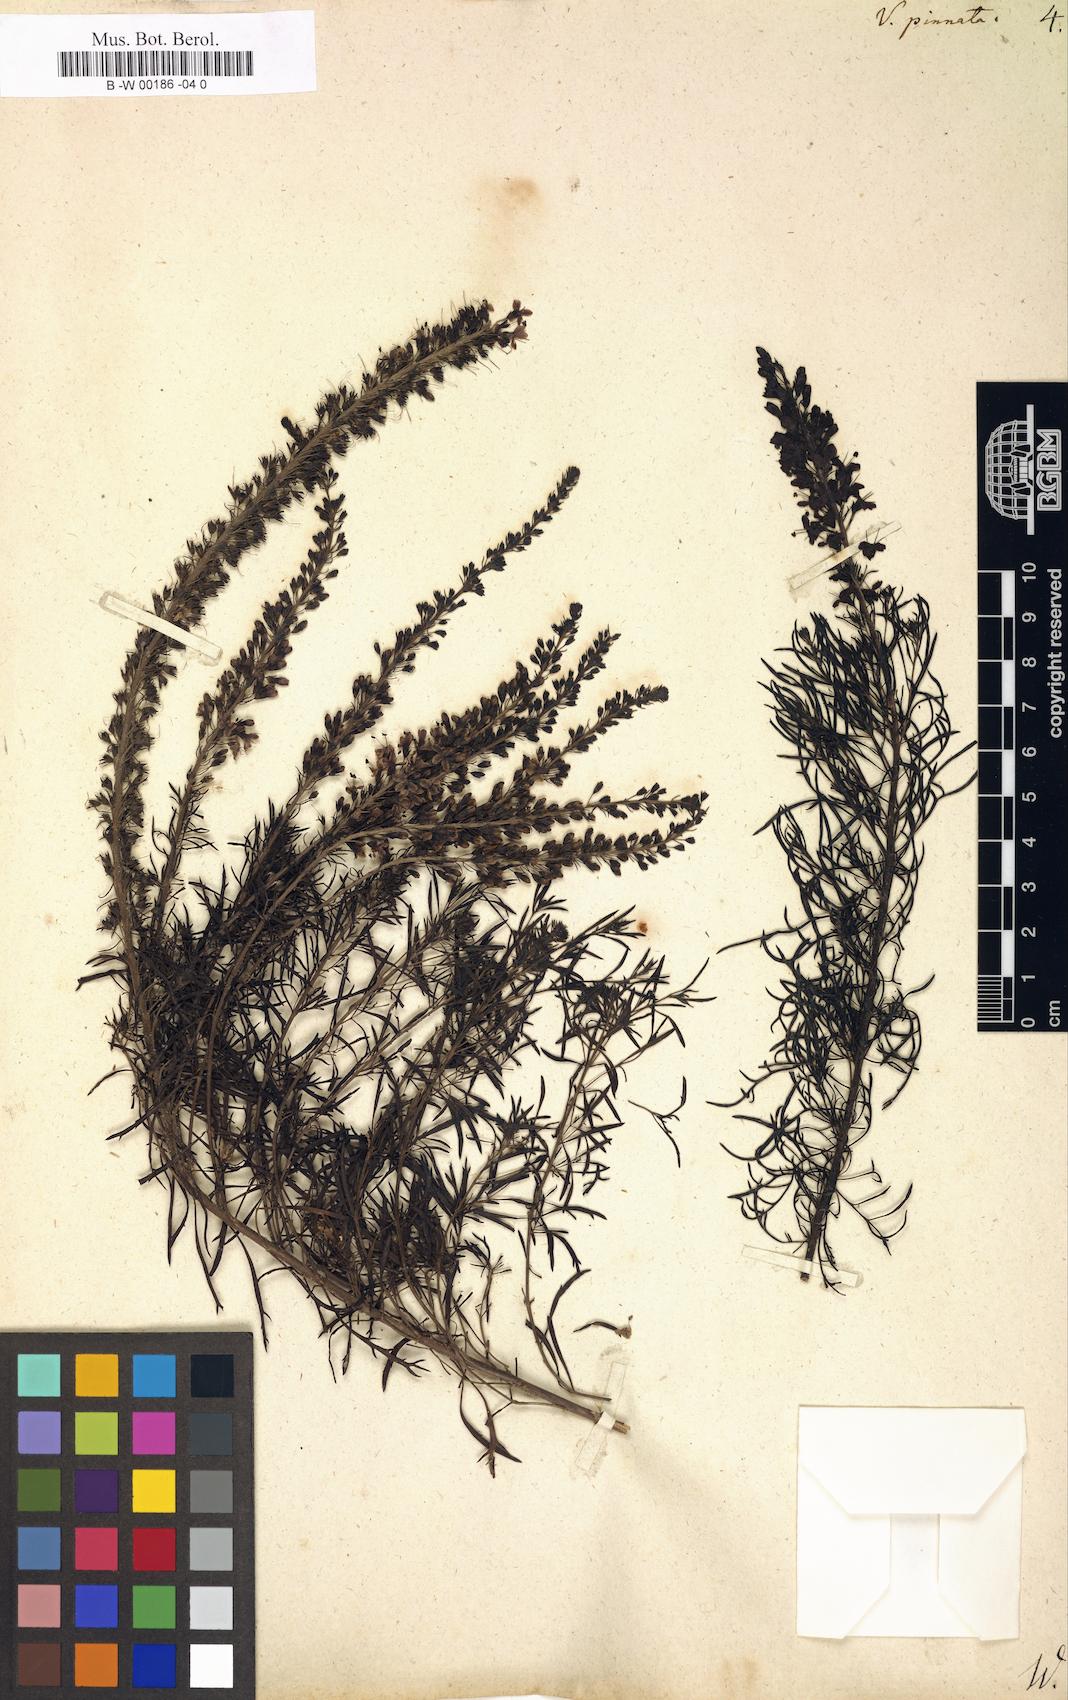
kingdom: Plantae
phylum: Tracheophyta
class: Magnoliopsida
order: Lamiales
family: Plantaginaceae
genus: Veronica
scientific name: Veronica pinnata
